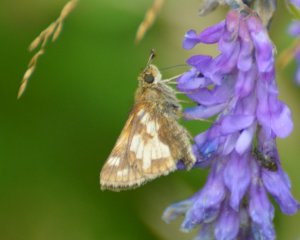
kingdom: Animalia
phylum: Arthropoda
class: Insecta
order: Lepidoptera
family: Hesperiidae
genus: Polites
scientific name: Polites coras
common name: Peck's Skipper
